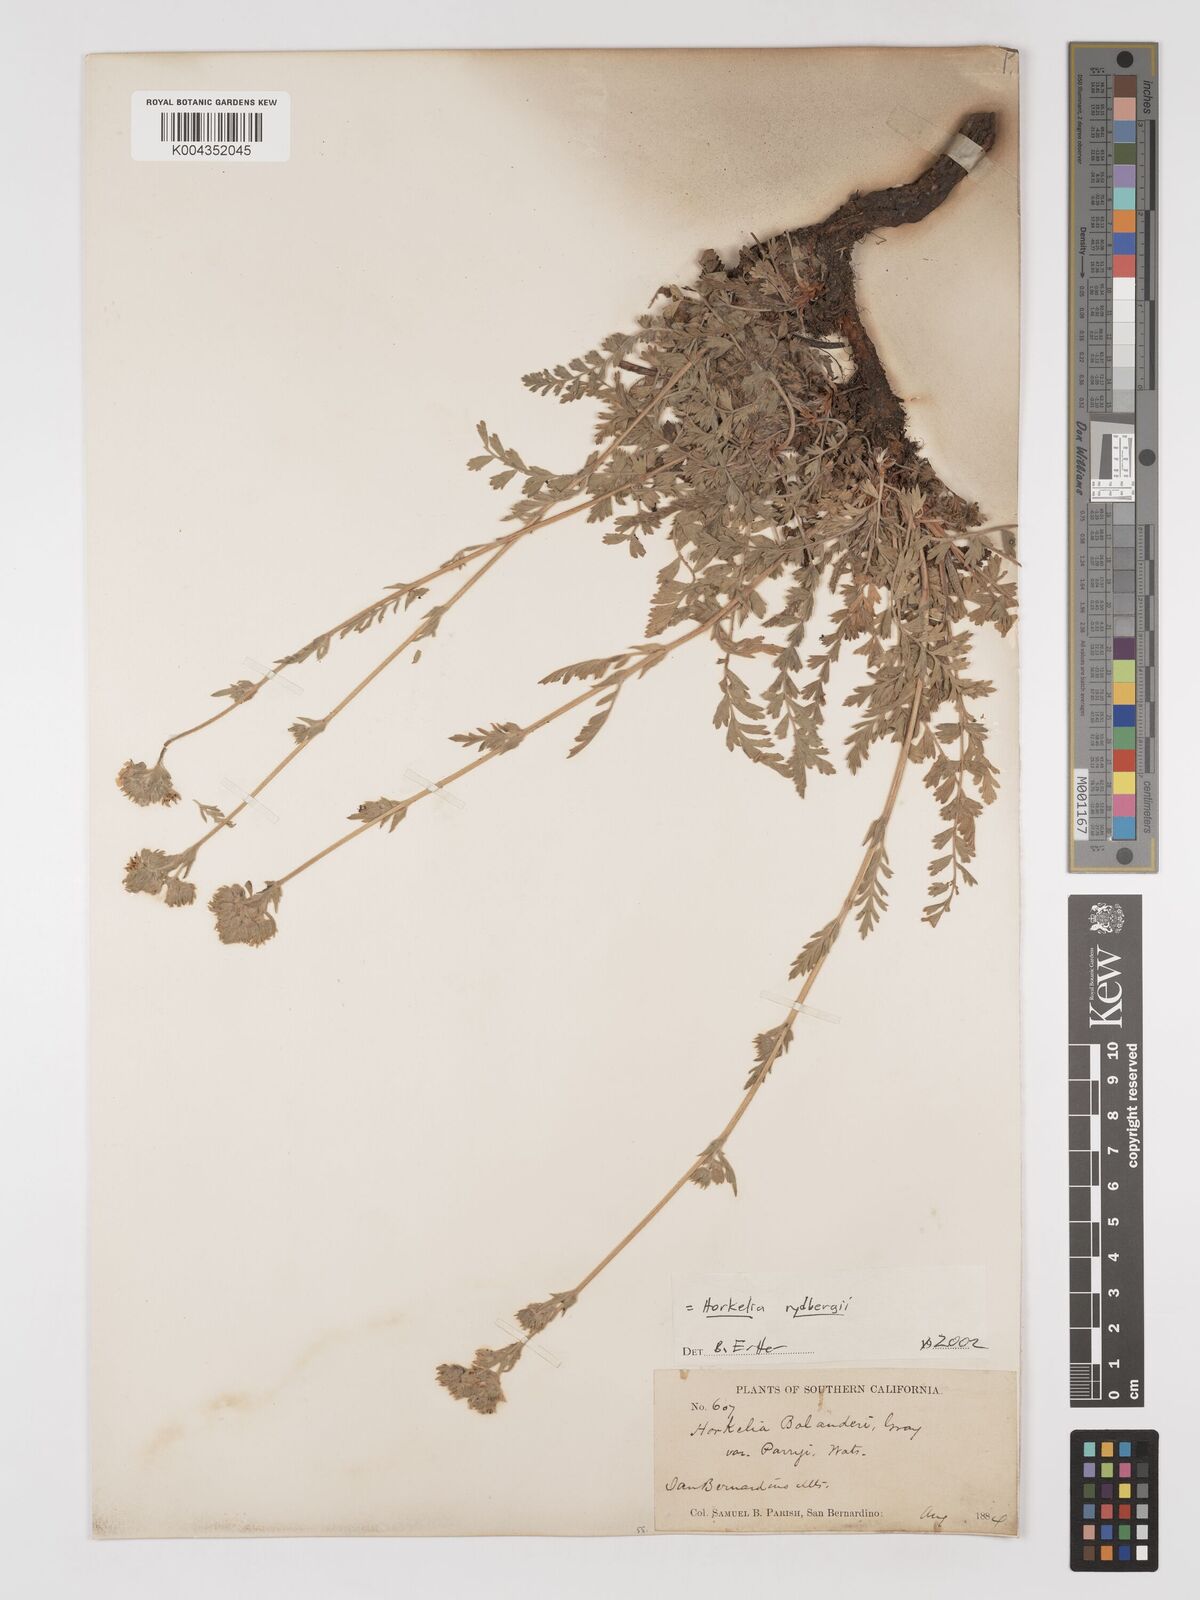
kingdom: Plantae
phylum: Tracheophyta
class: Magnoliopsida
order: Rosales
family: Rosaceae
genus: Potentilla
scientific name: Potentilla rydbergii
